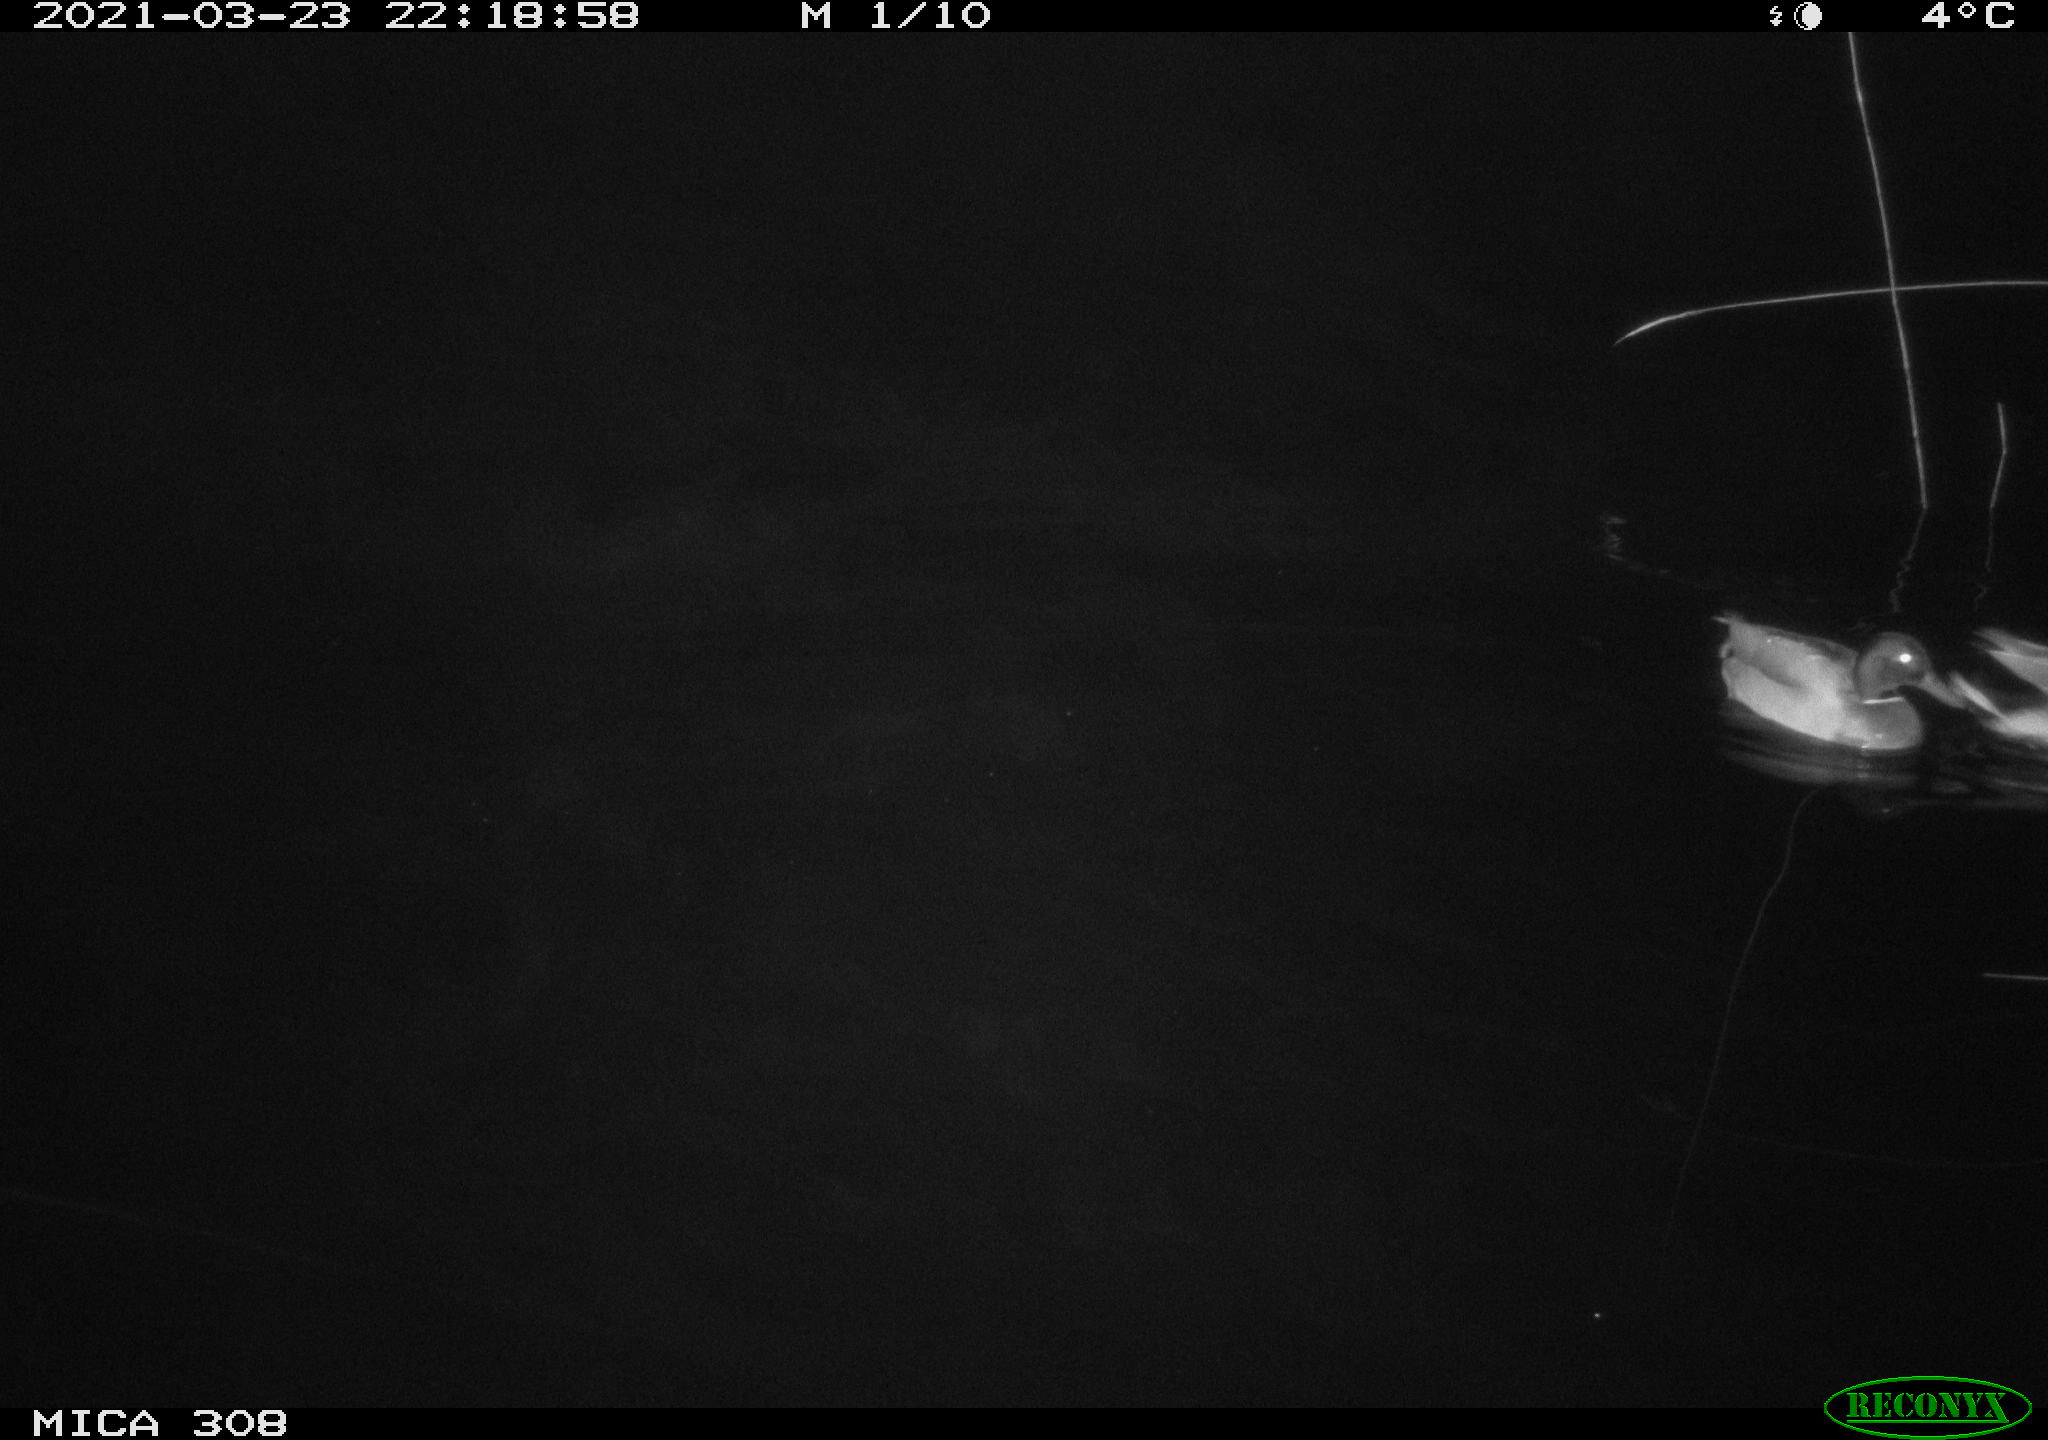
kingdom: Animalia
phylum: Chordata
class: Aves
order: Anseriformes
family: Anatidae
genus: Anas
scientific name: Anas platyrhynchos
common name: Mallard
